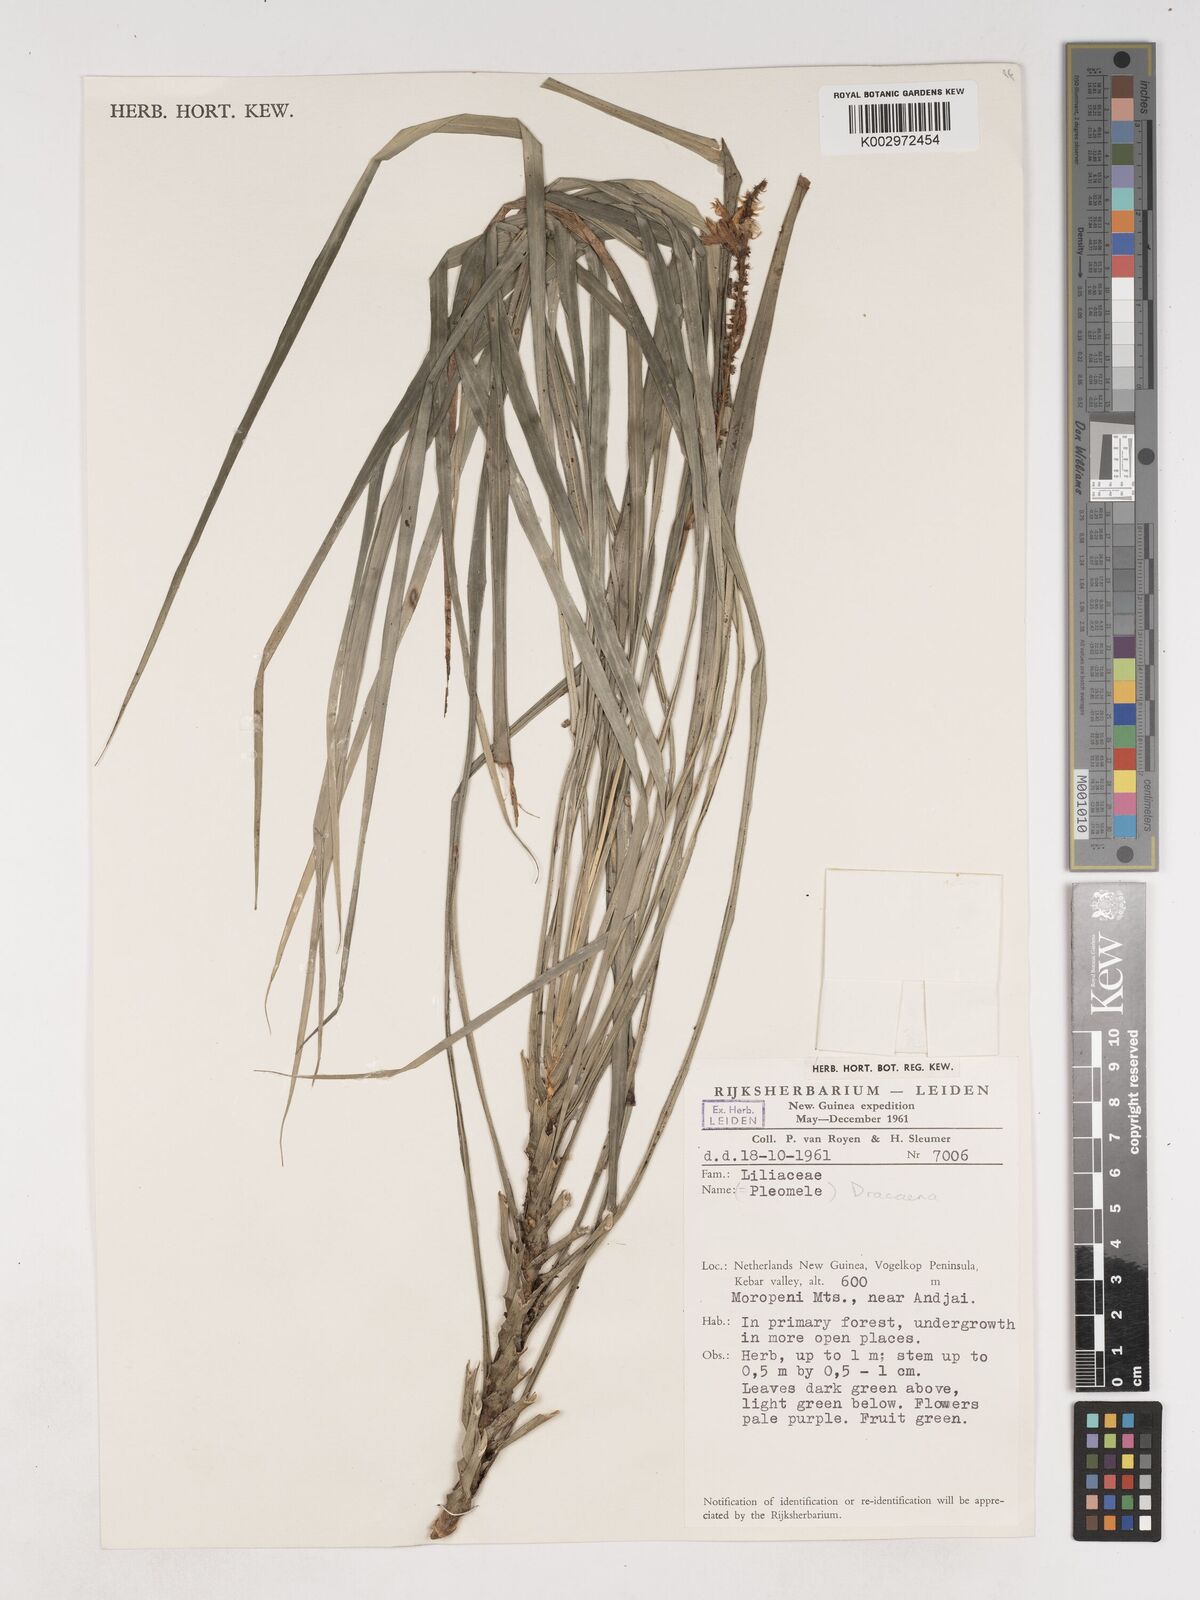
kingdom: Plantae
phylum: Tracheophyta
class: Liliopsida
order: Asparagales
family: Asparagaceae
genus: Cordyline
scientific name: Cordyline angustissima
